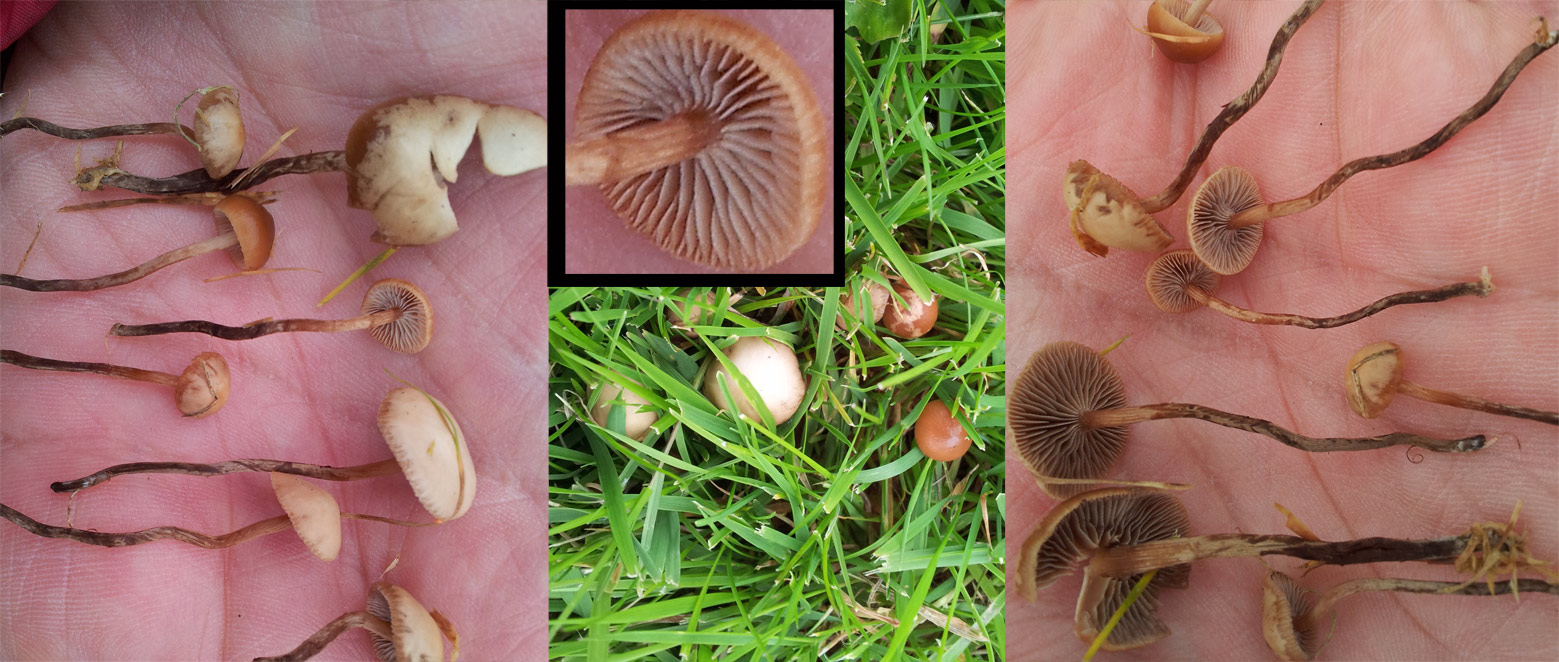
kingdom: Fungi
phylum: Basidiomycota
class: Agaricomycetes
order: Agaricales
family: Hymenogastraceae
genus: Psilocybe
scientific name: Psilocybe subviscida
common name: puklet stråhat
